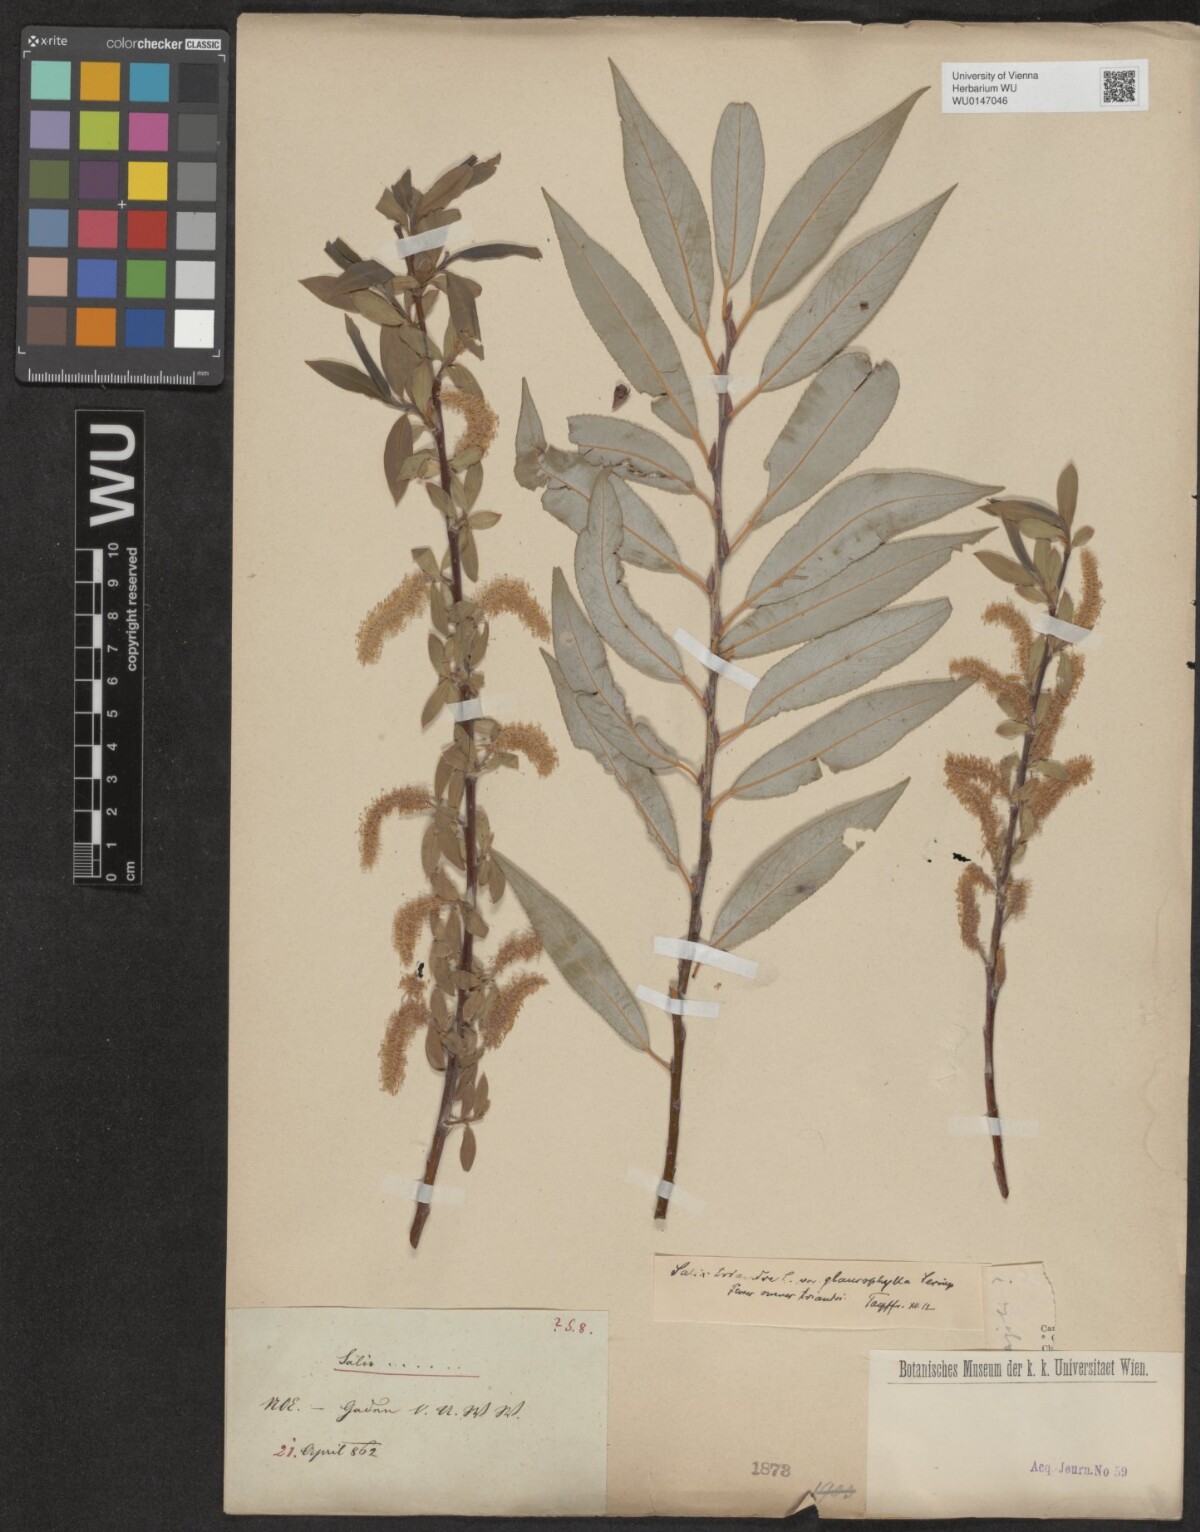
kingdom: Plantae
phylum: Tracheophyta
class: Magnoliopsida
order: Malpighiales
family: Salicaceae
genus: Salix
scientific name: Salix triandra
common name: Almond willow
